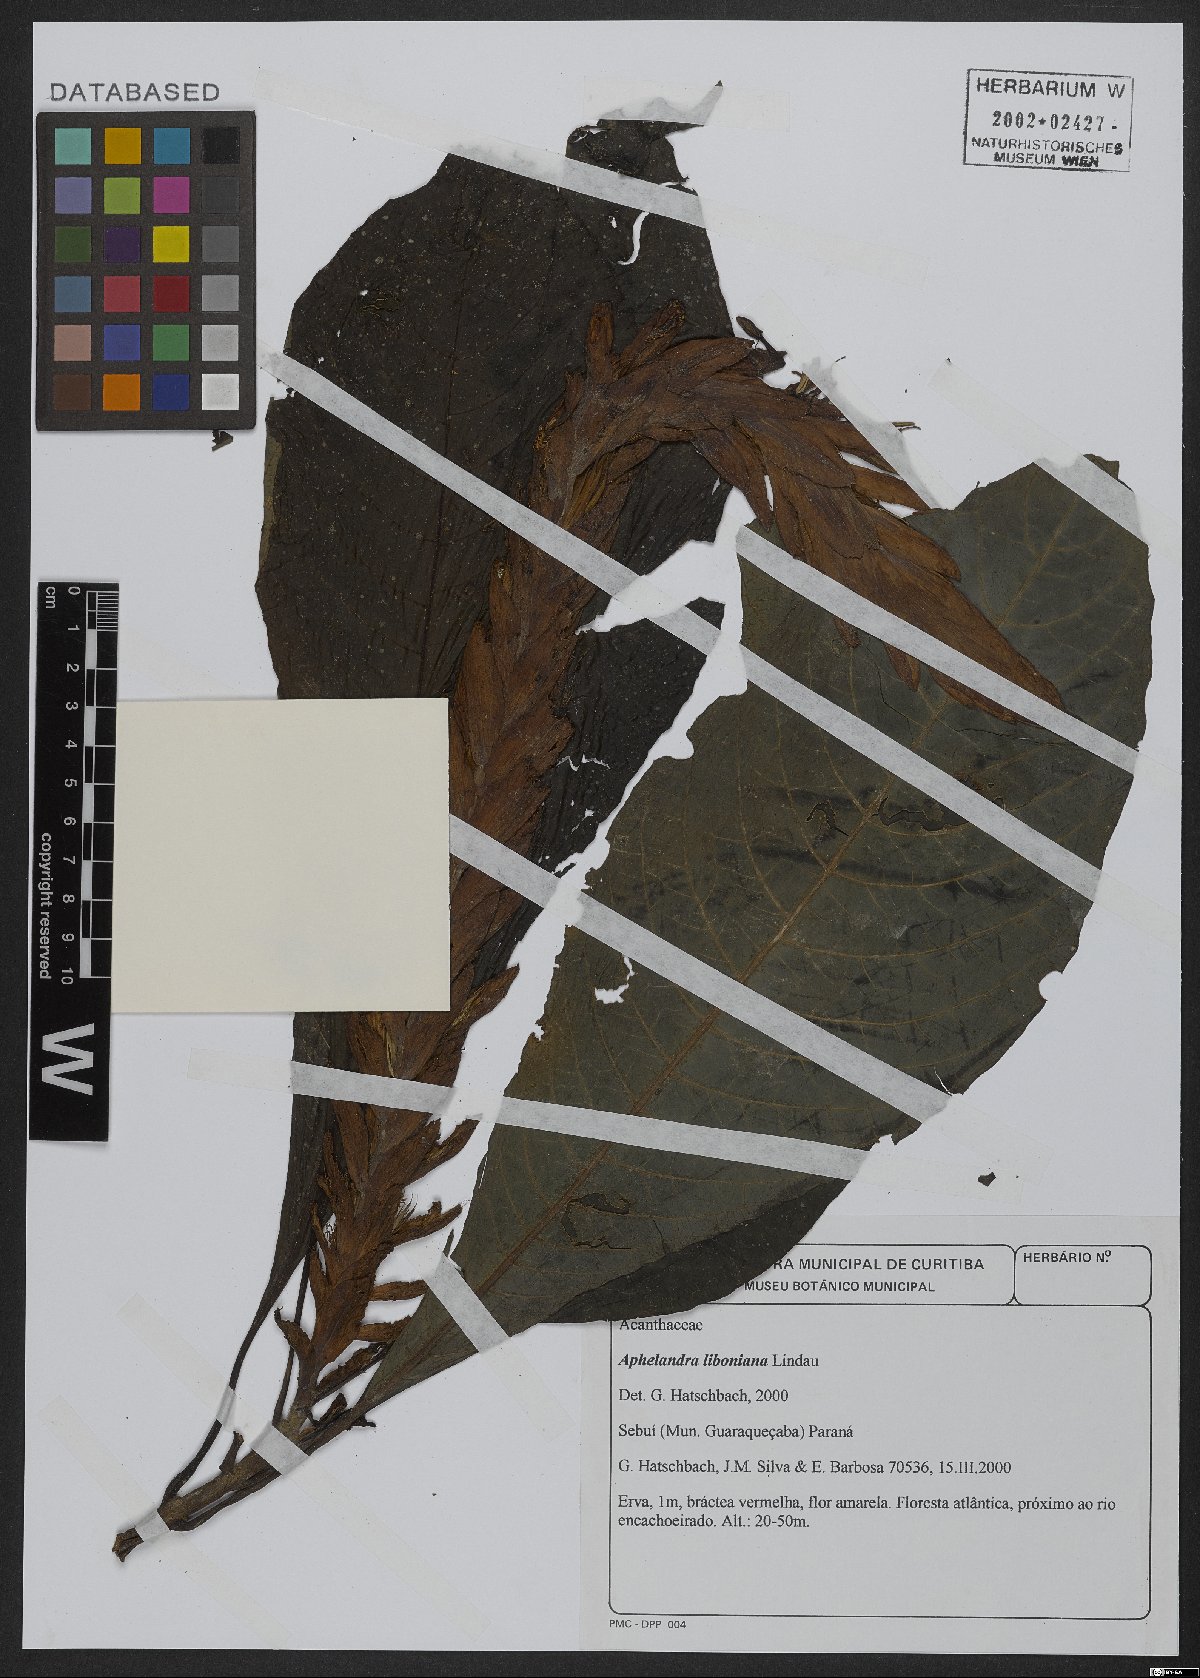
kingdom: Plantae
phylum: Tracheophyta
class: Magnoliopsida
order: Lamiales
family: Acanthaceae
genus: Aphelandra
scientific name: Aphelandra liboniana
